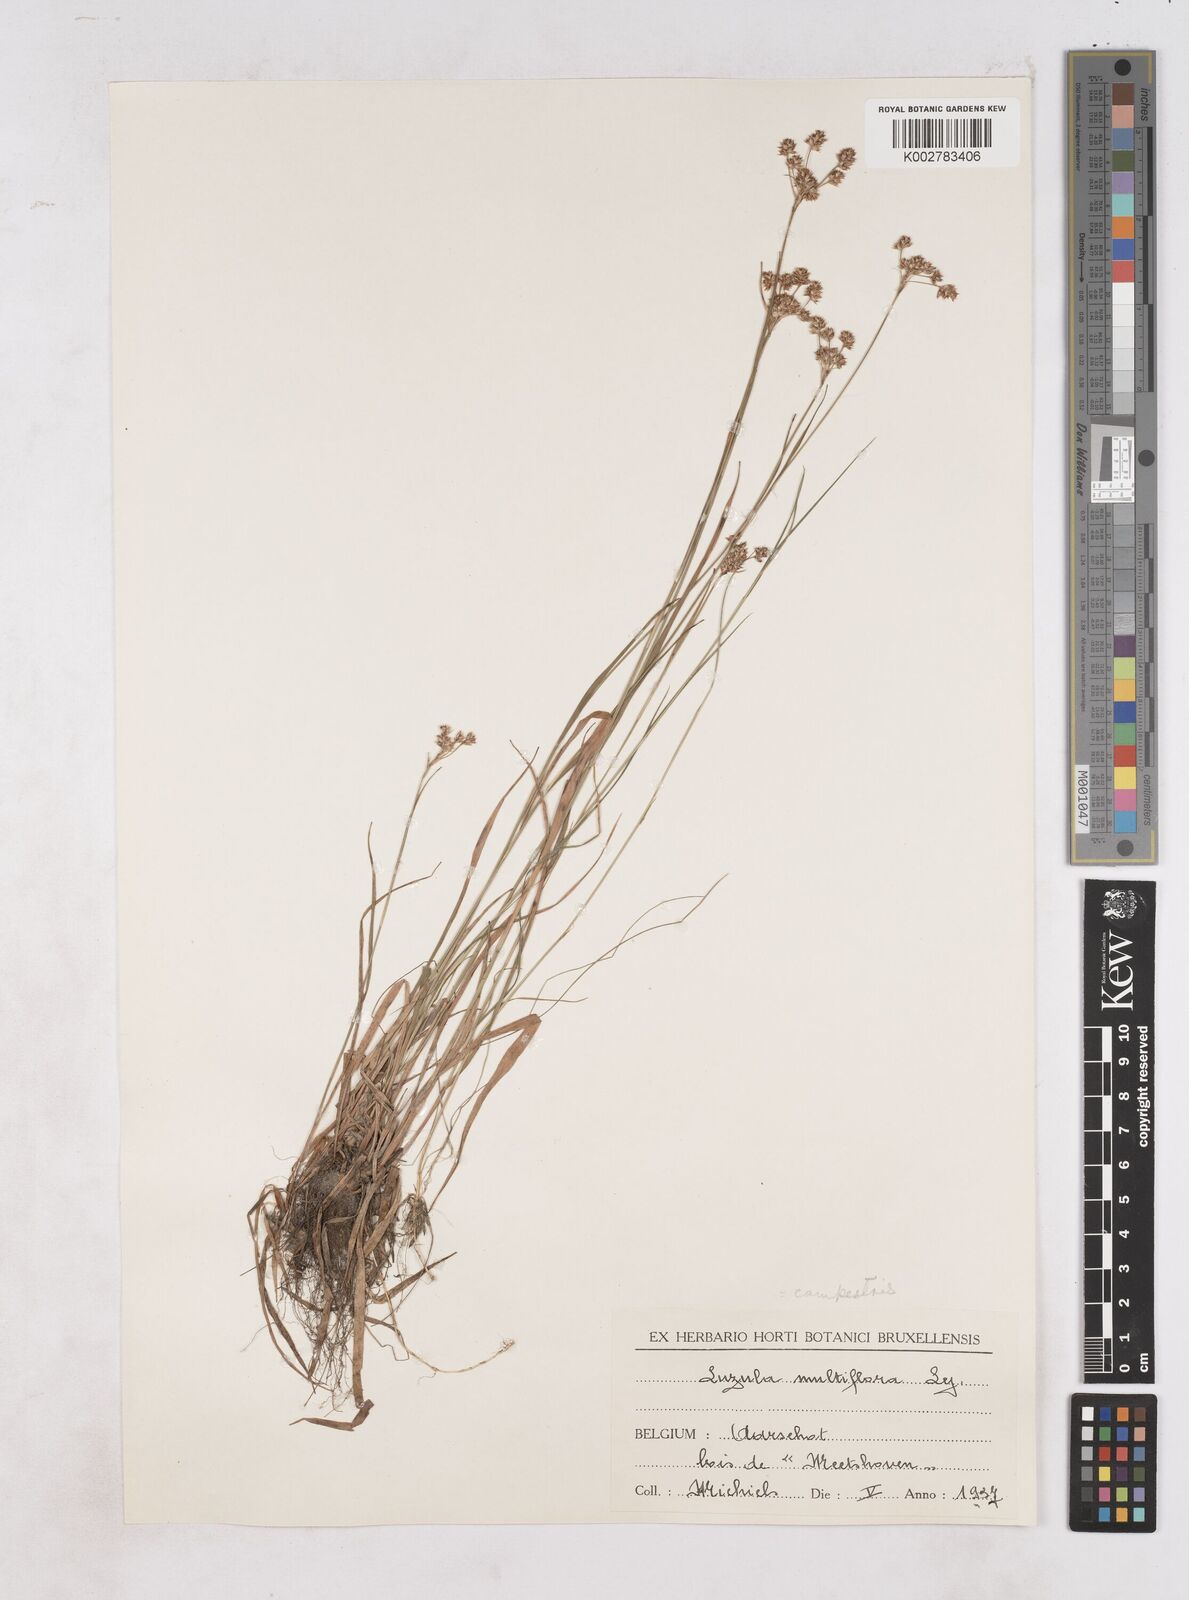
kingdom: Plantae
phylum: Tracheophyta
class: Liliopsida
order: Poales
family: Juncaceae
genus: Luzula
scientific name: Luzula multiflora
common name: Heath wood-rush
